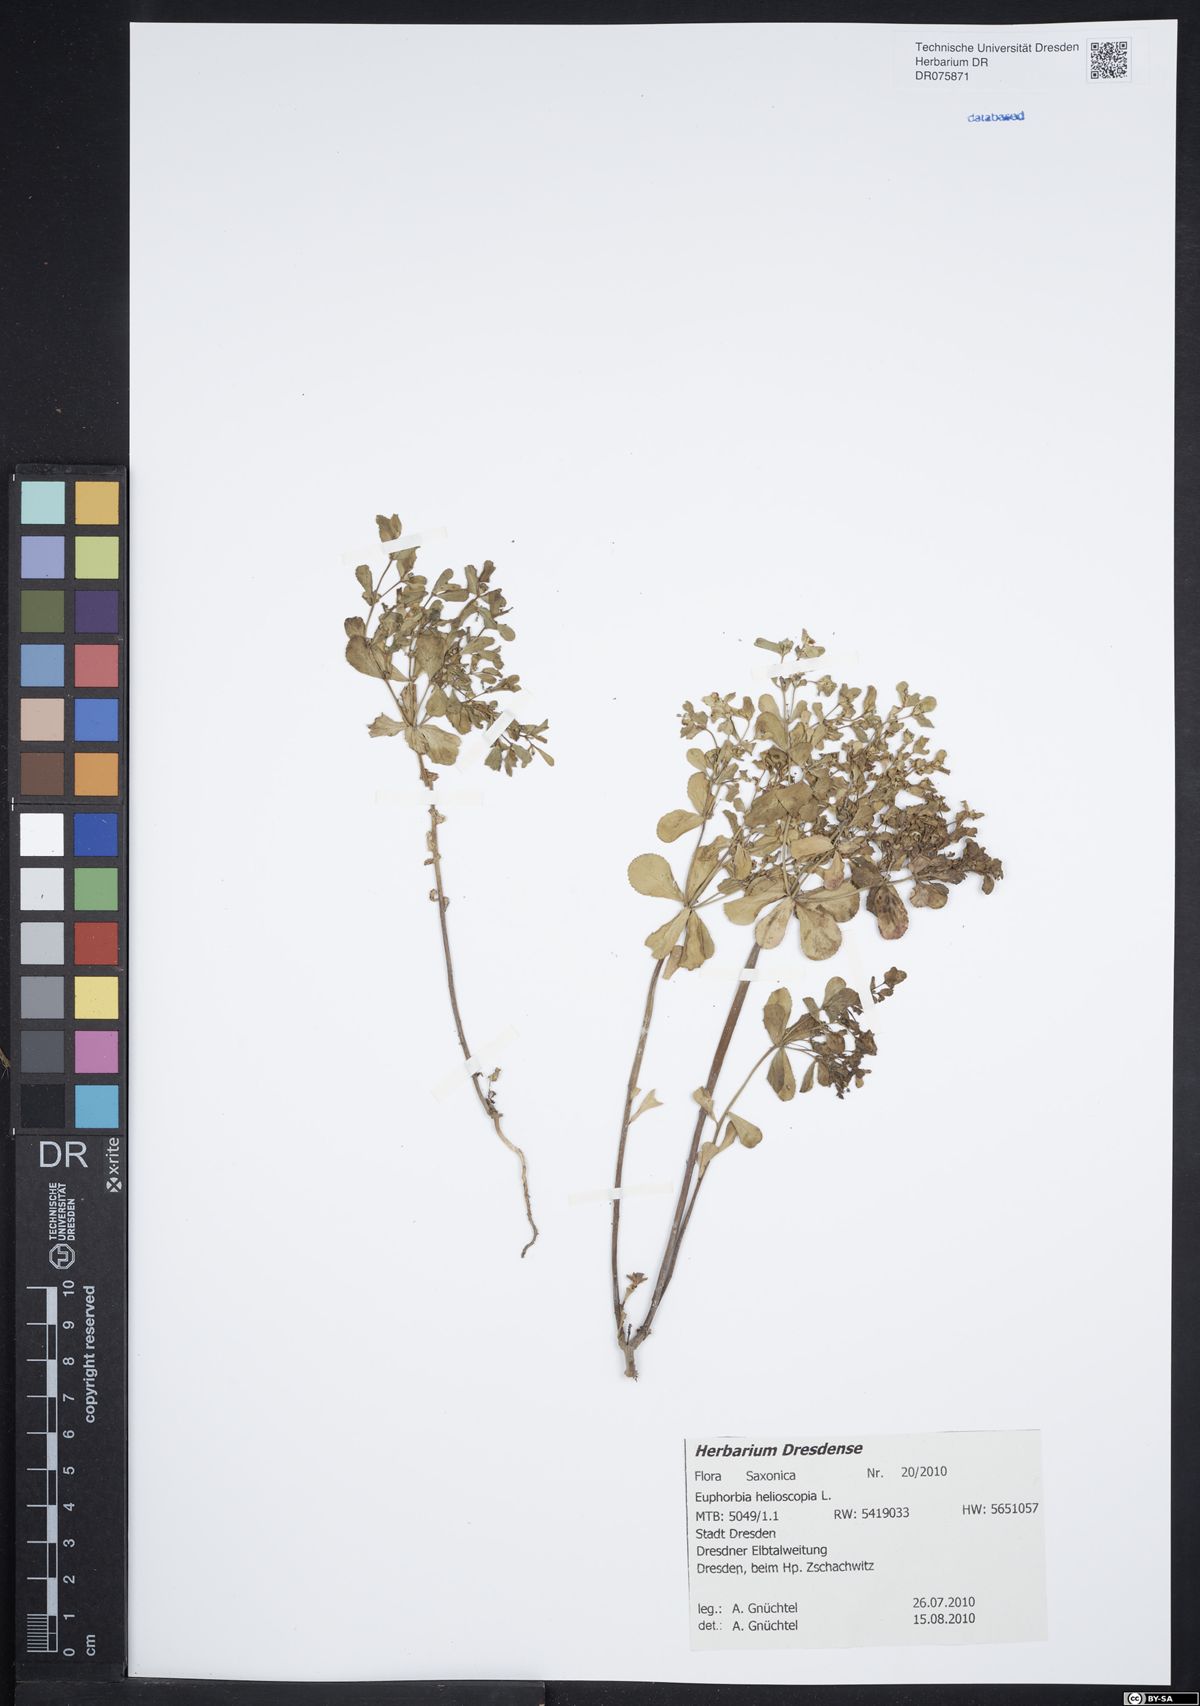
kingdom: Plantae
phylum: Tracheophyta
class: Magnoliopsida
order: Malpighiales
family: Euphorbiaceae
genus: Euphorbia
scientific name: Euphorbia helioscopia
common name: Sun spurge
